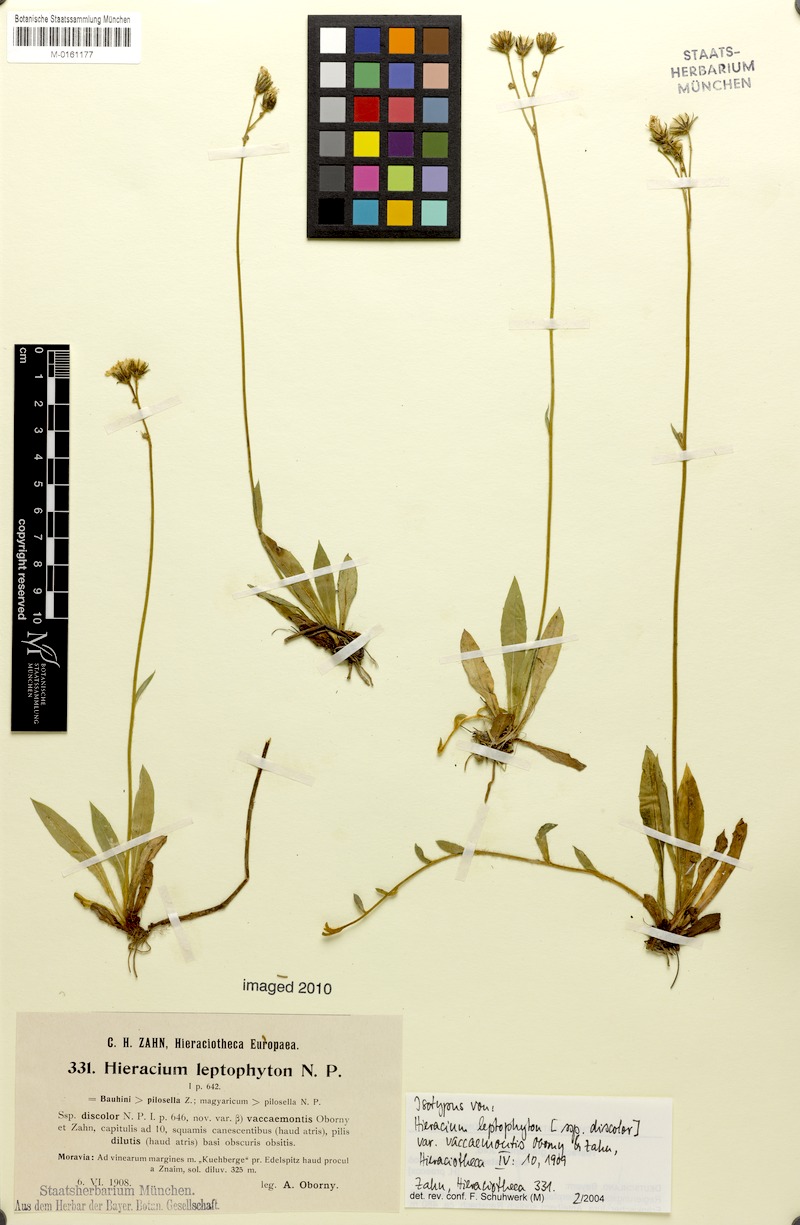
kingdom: Plantae
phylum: Tracheophyta
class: Magnoliopsida
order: Asterales
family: Asteraceae
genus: Pilosella
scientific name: Pilosella leptophyton
